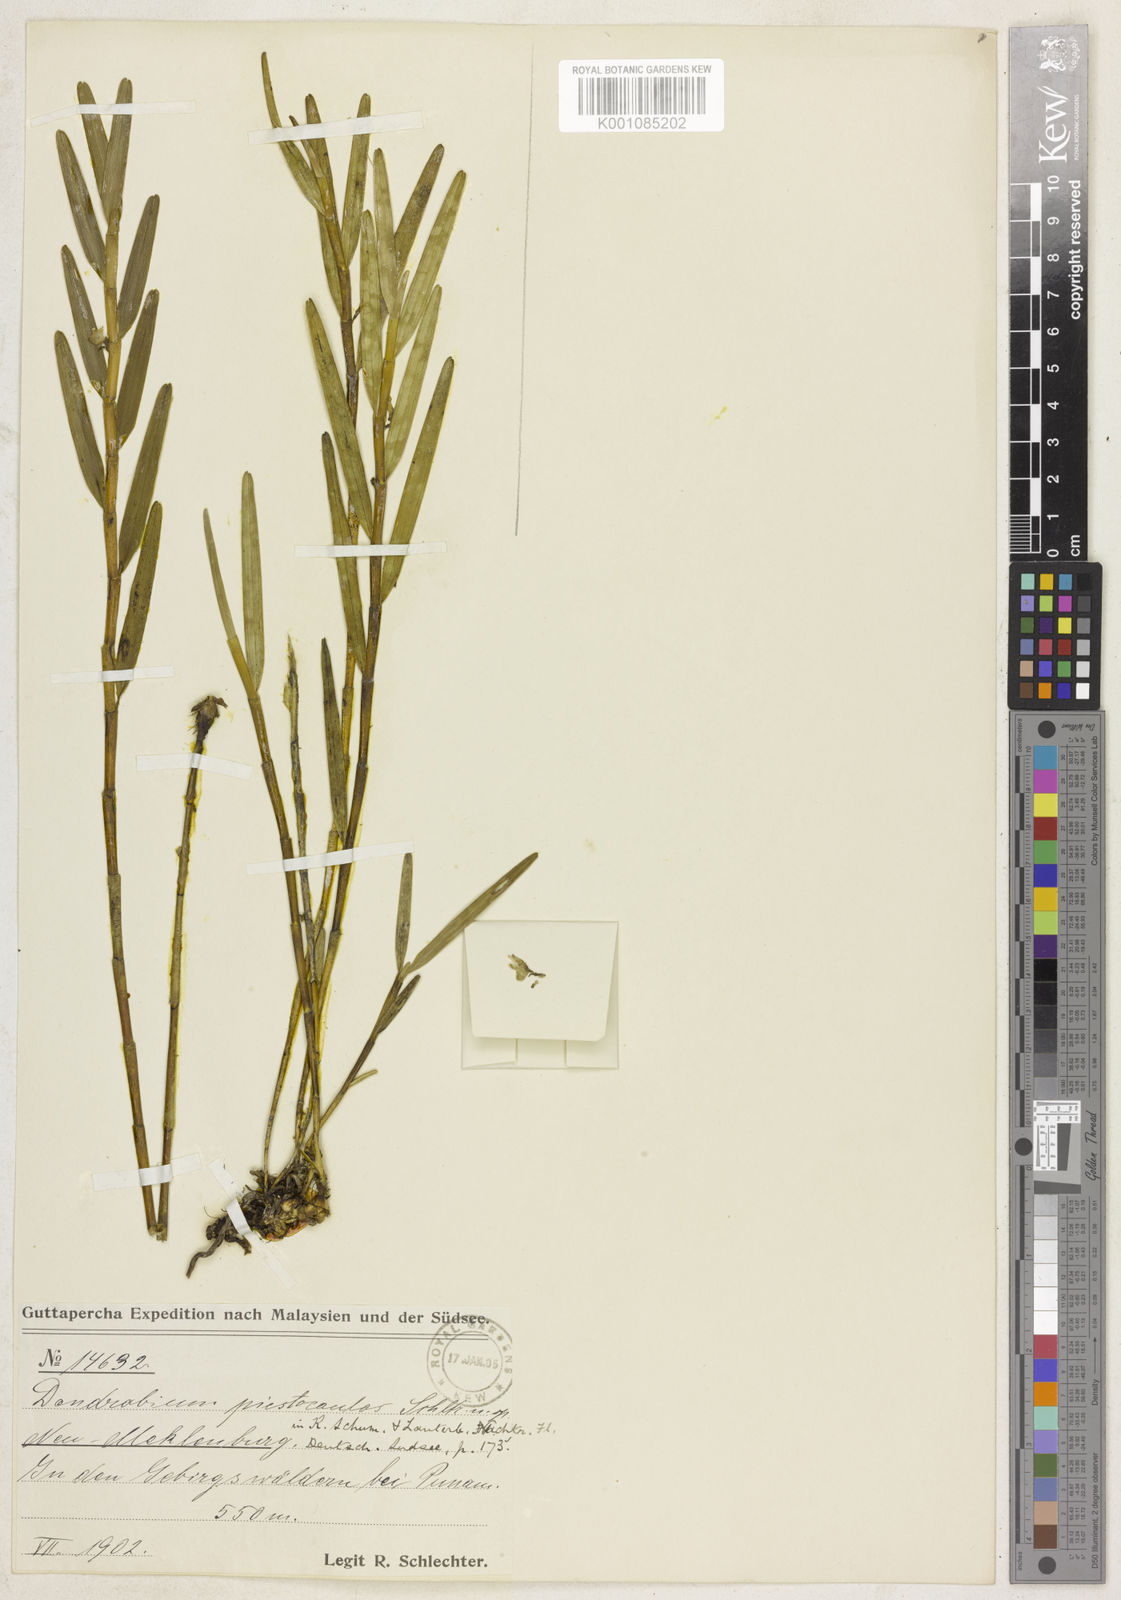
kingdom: Plantae
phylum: Tracheophyta
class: Liliopsida
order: Asparagales
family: Orchidaceae
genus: Dendrobium
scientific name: Dendrobium piestocaulon
